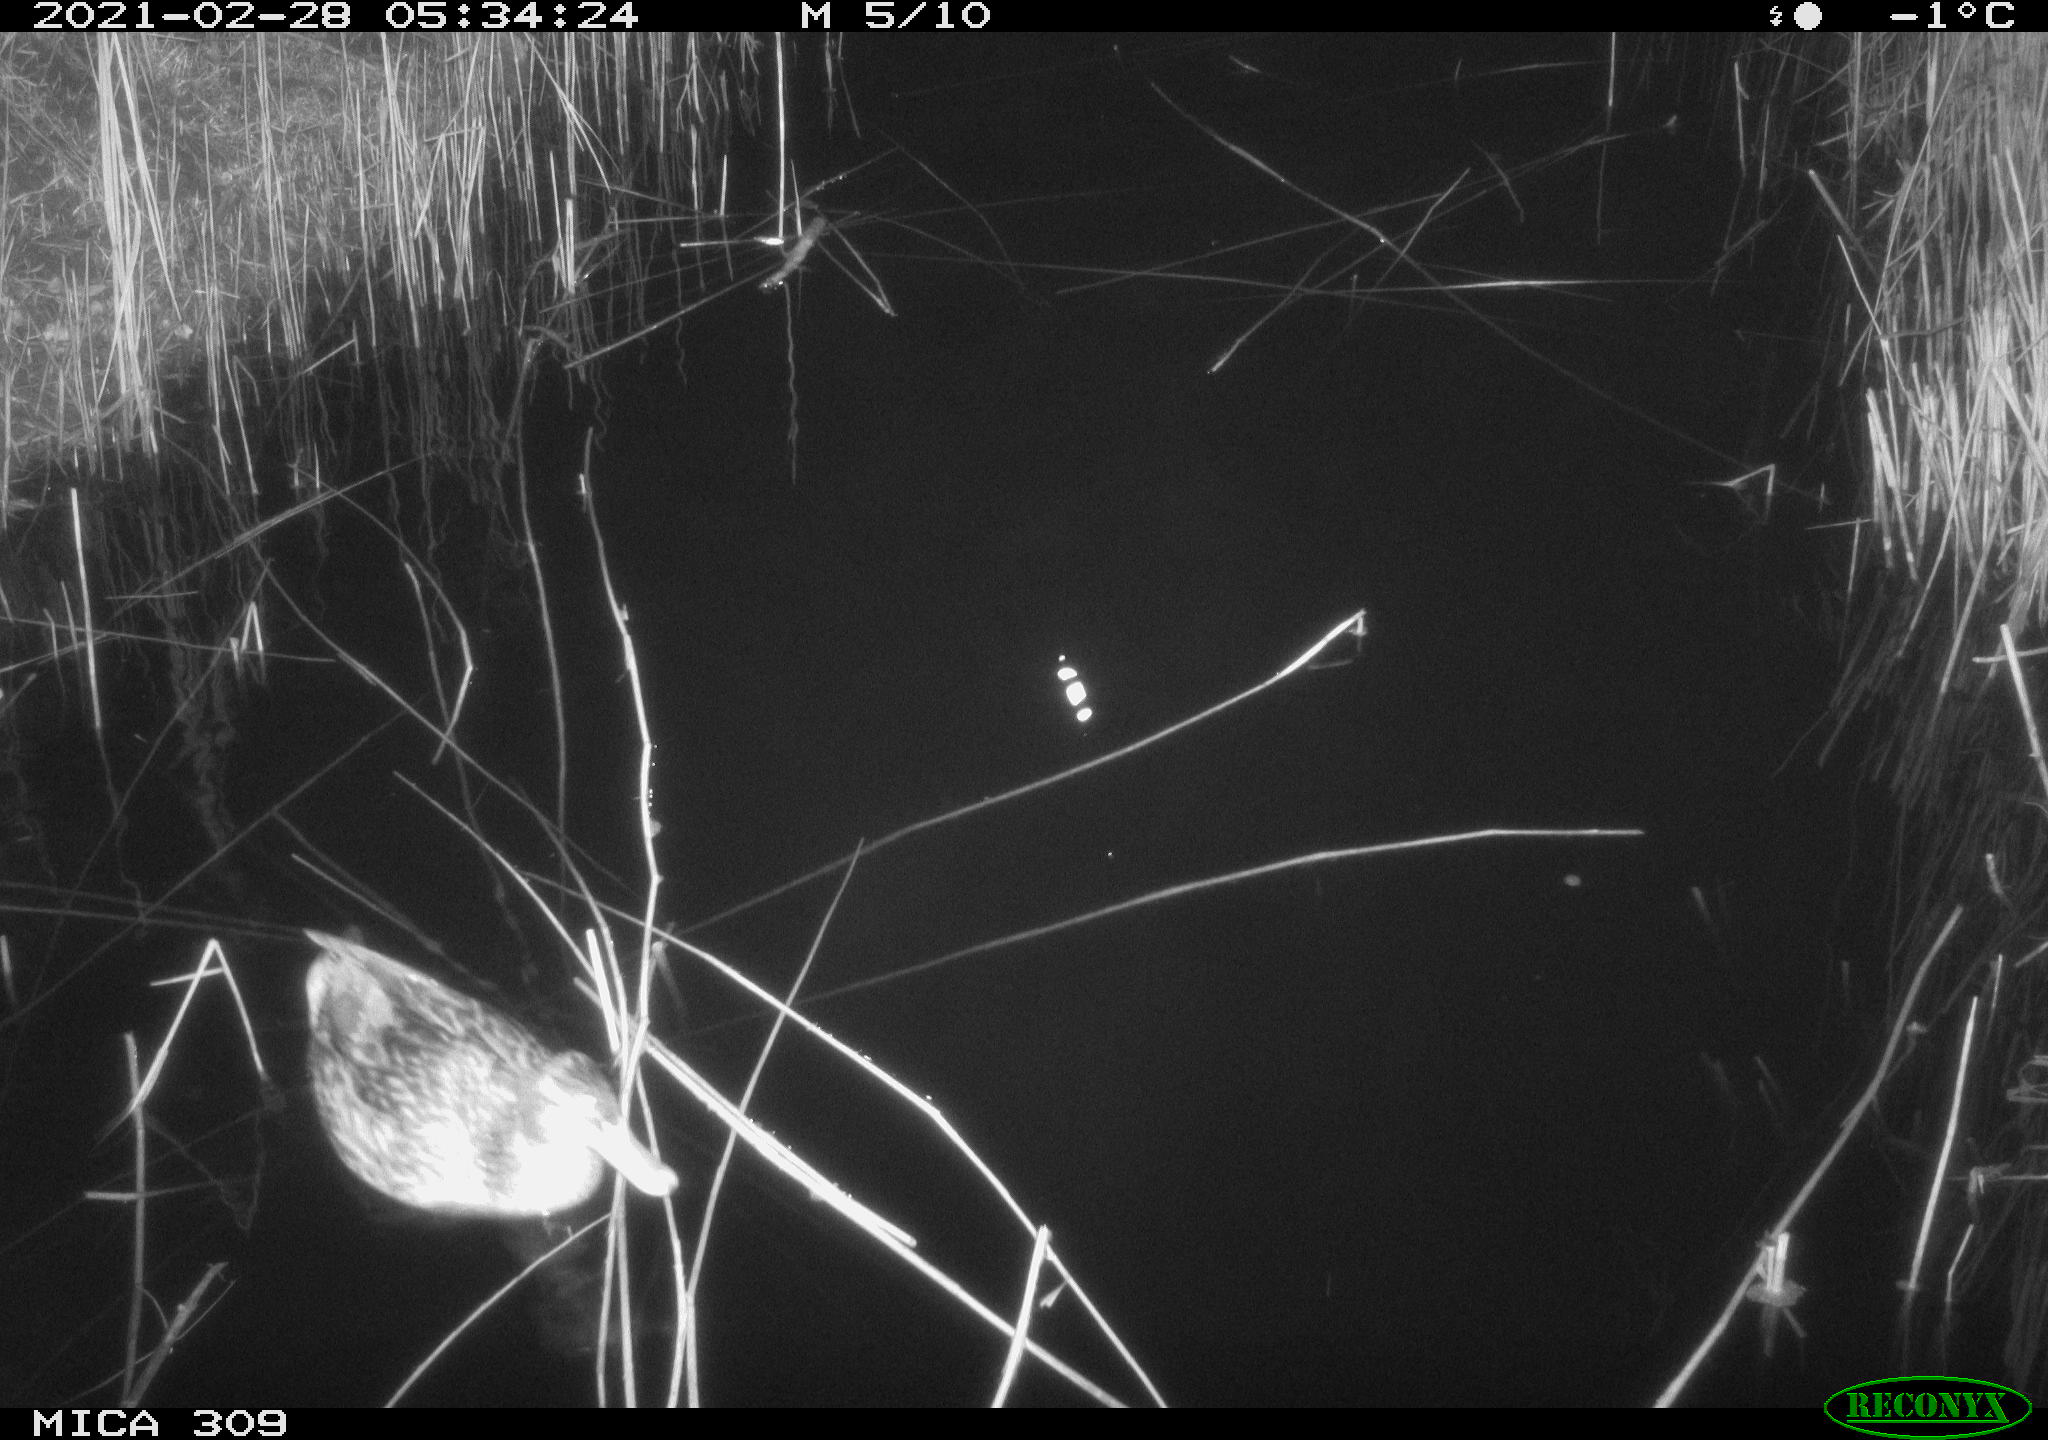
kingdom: Animalia
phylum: Chordata
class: Aves
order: Anseriformes
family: Anatidae
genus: Anas
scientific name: Anas platyrhynchos
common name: Mallard
